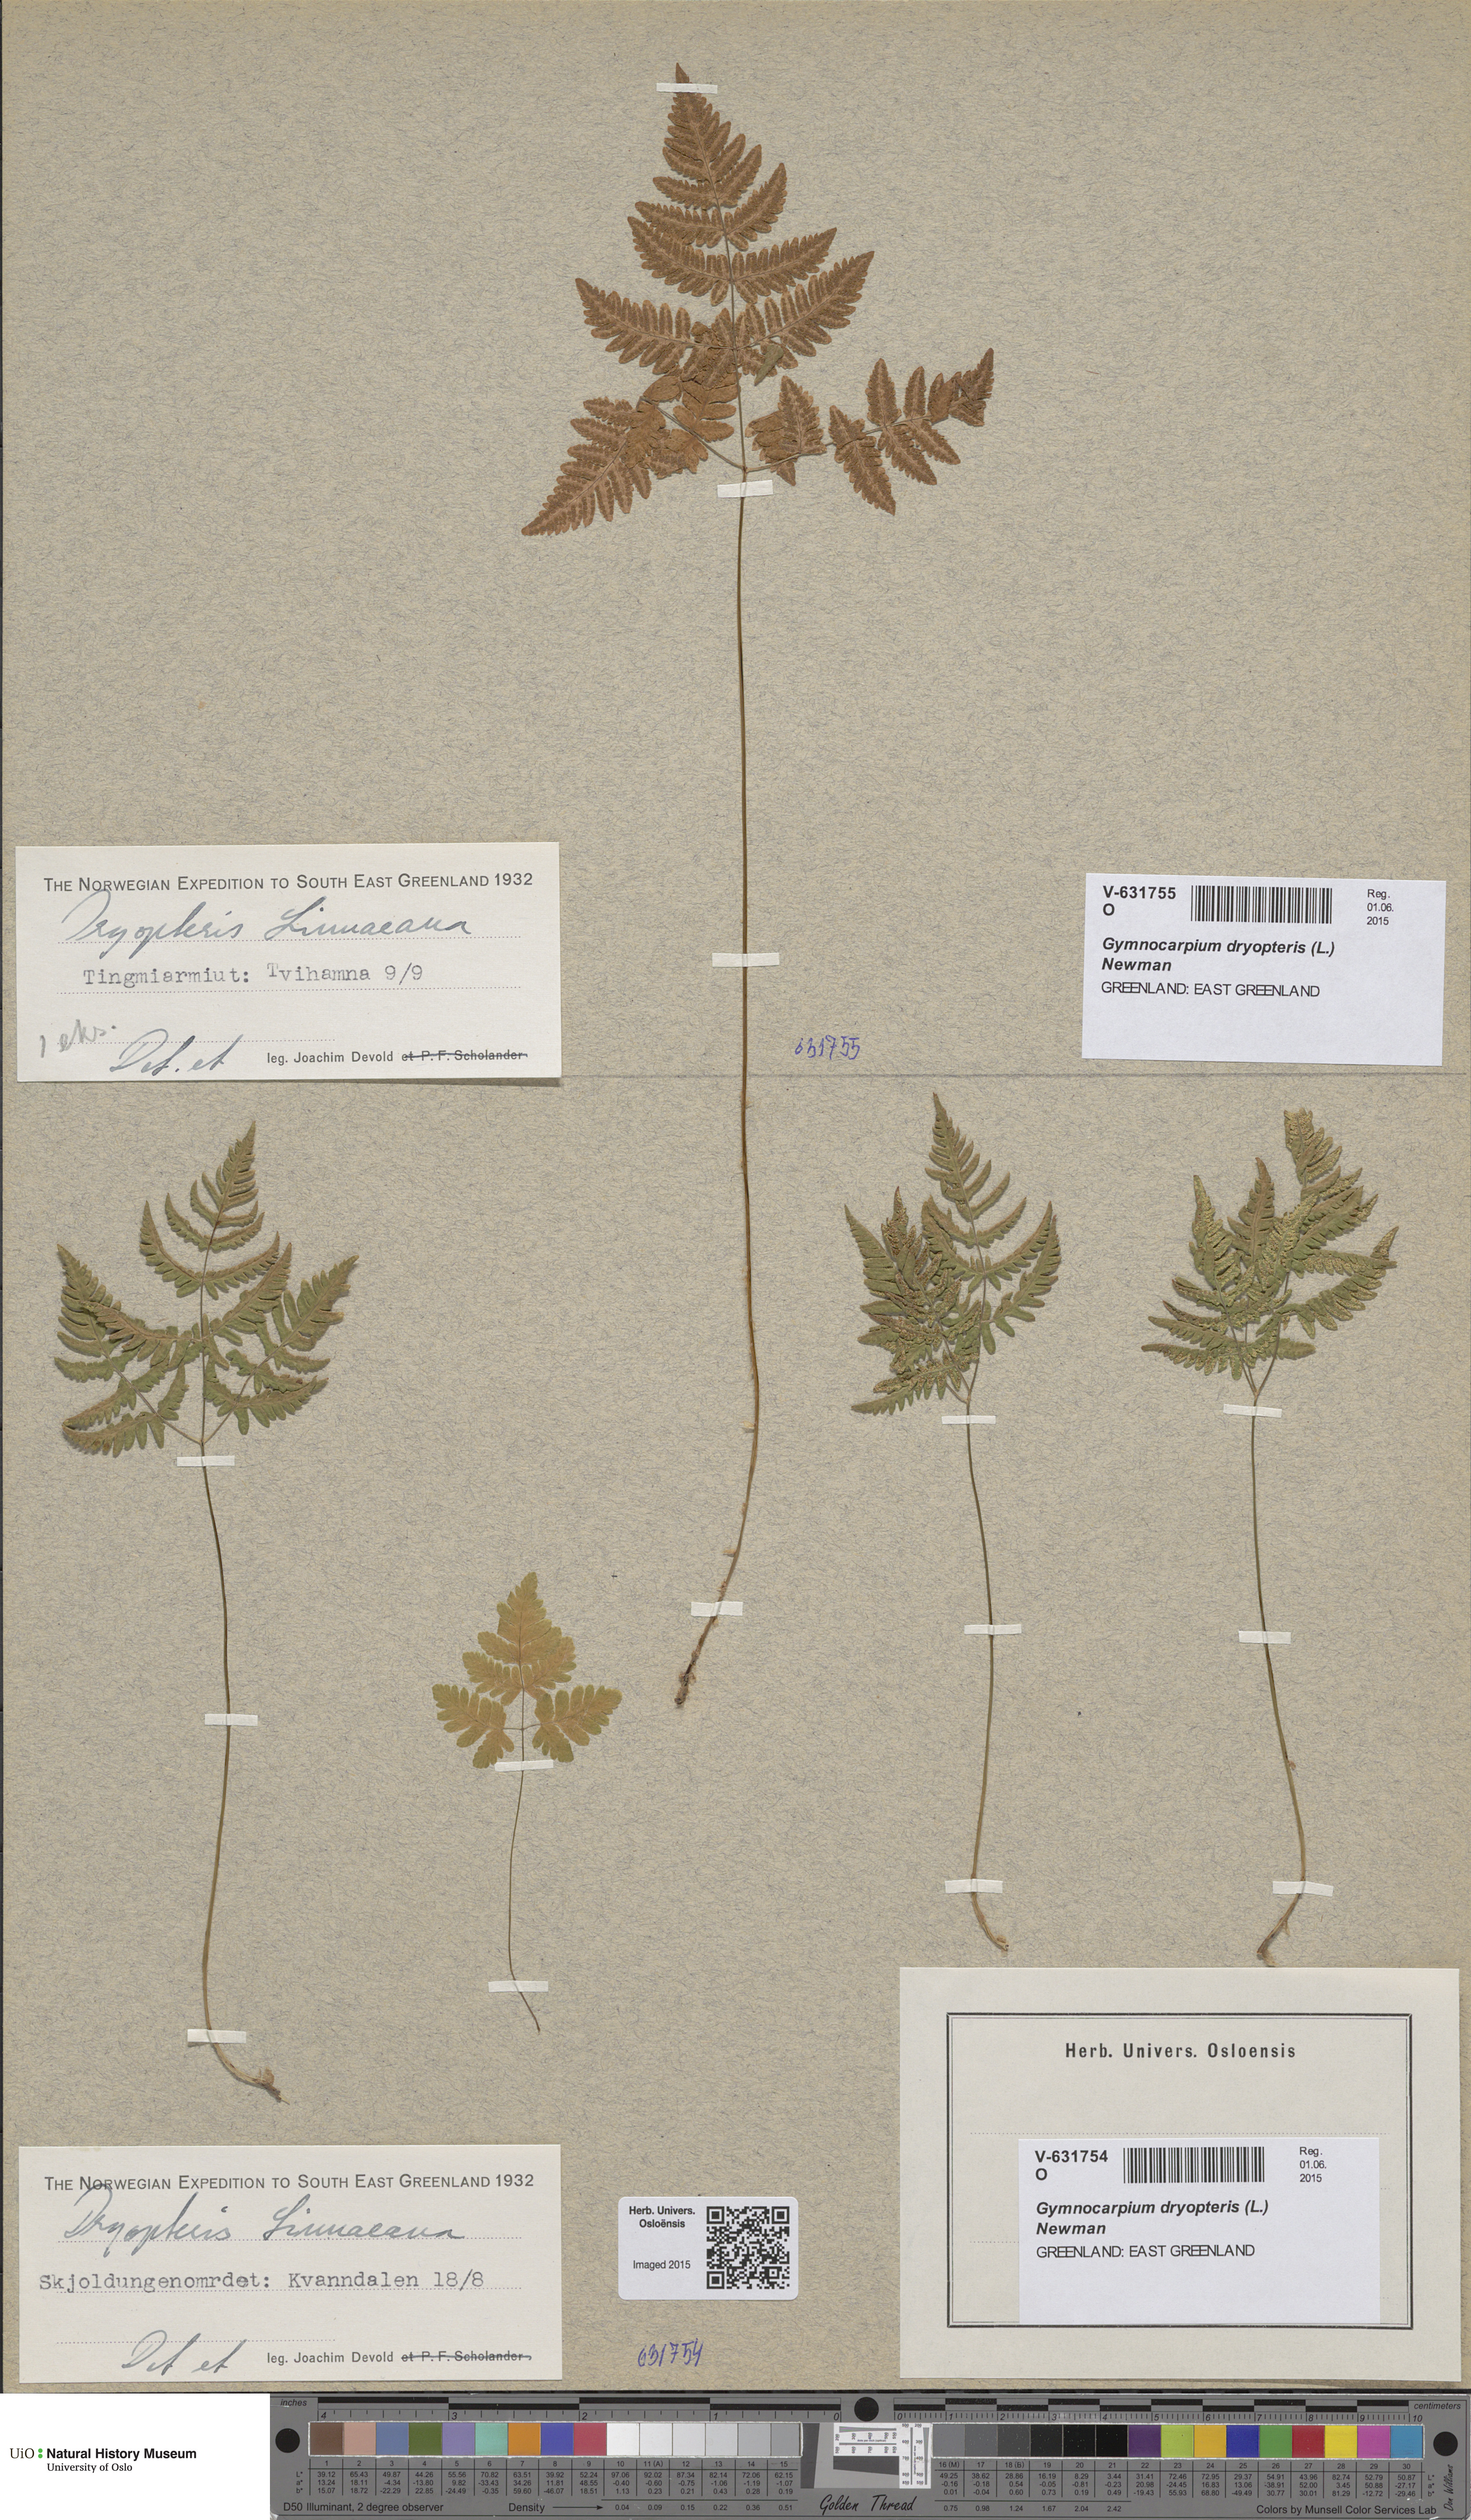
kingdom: Plantae
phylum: Tracheophyta
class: Polypodiopsida
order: Polypodiales
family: Cystopteridaceae
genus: Gymnocarpium
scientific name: Gymnocarpium dryopteris
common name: Oak fern
